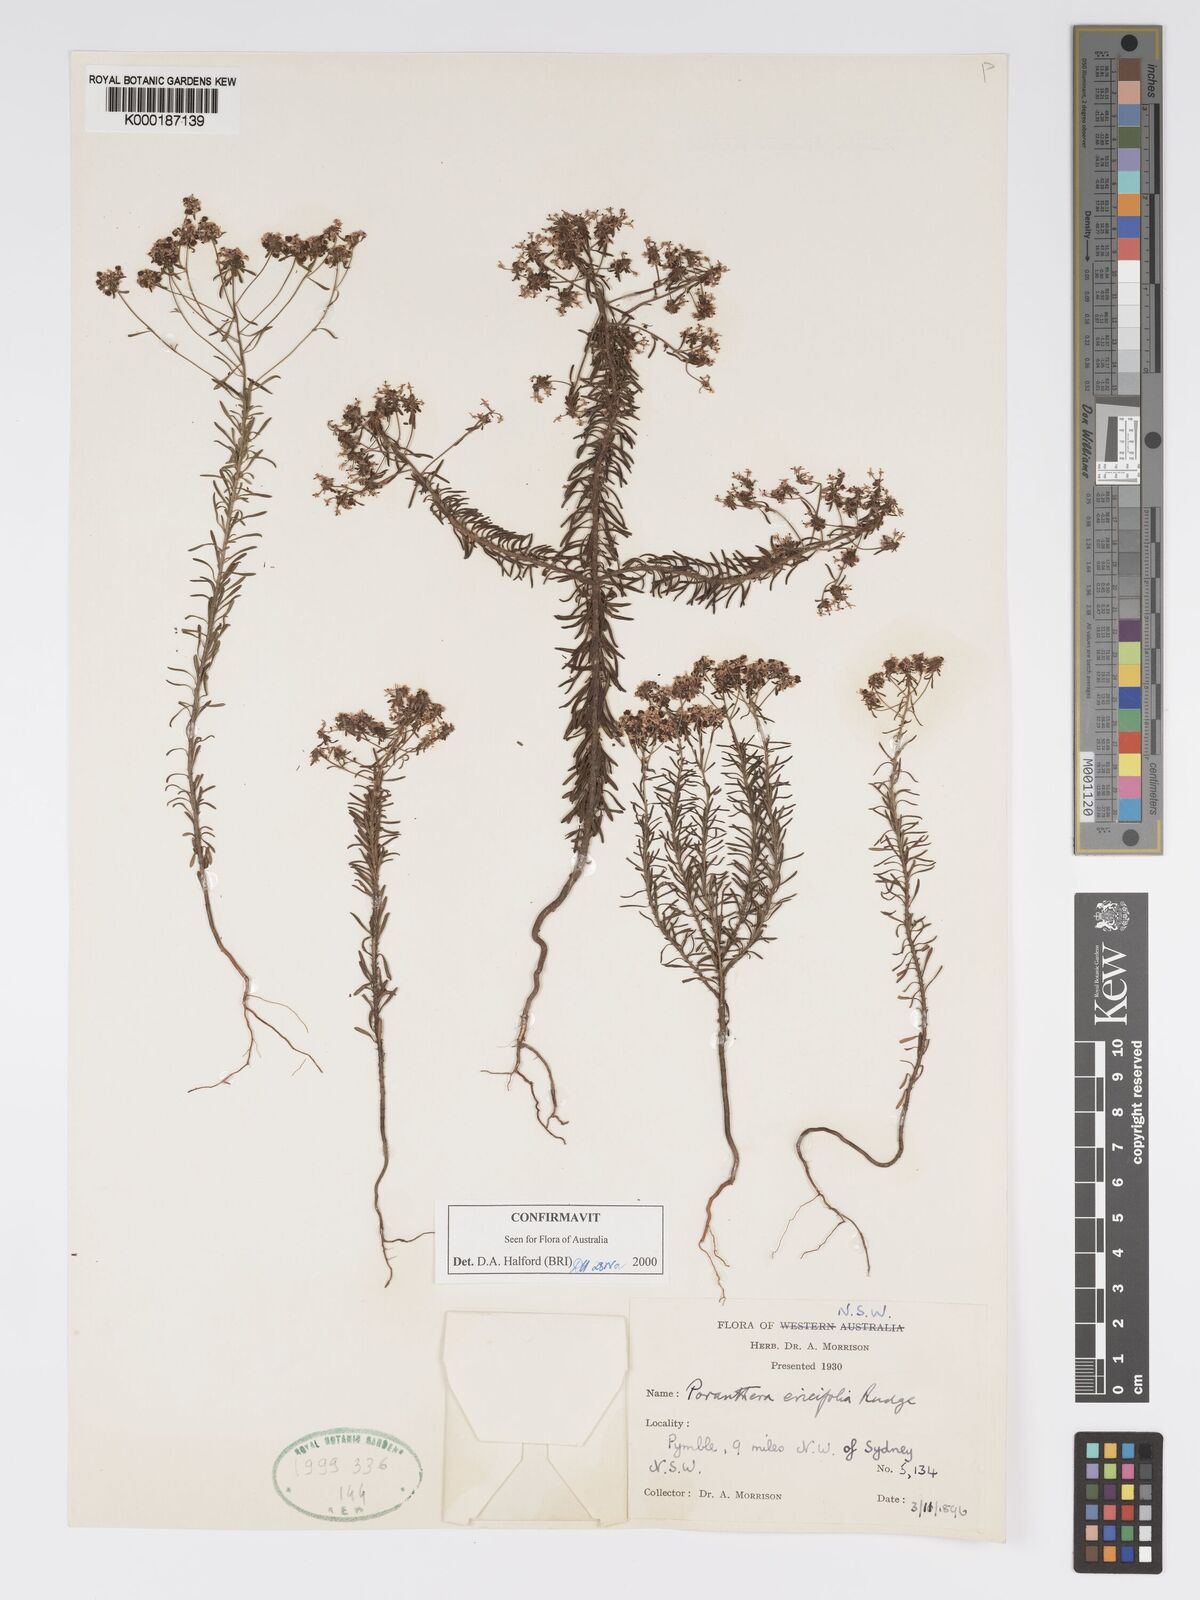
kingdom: Plantae
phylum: Tracheophyta
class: Magnoliopsida
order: Malpighiales
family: Phyllanthaceae
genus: Poranthera
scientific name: Poranthera ericifolia
